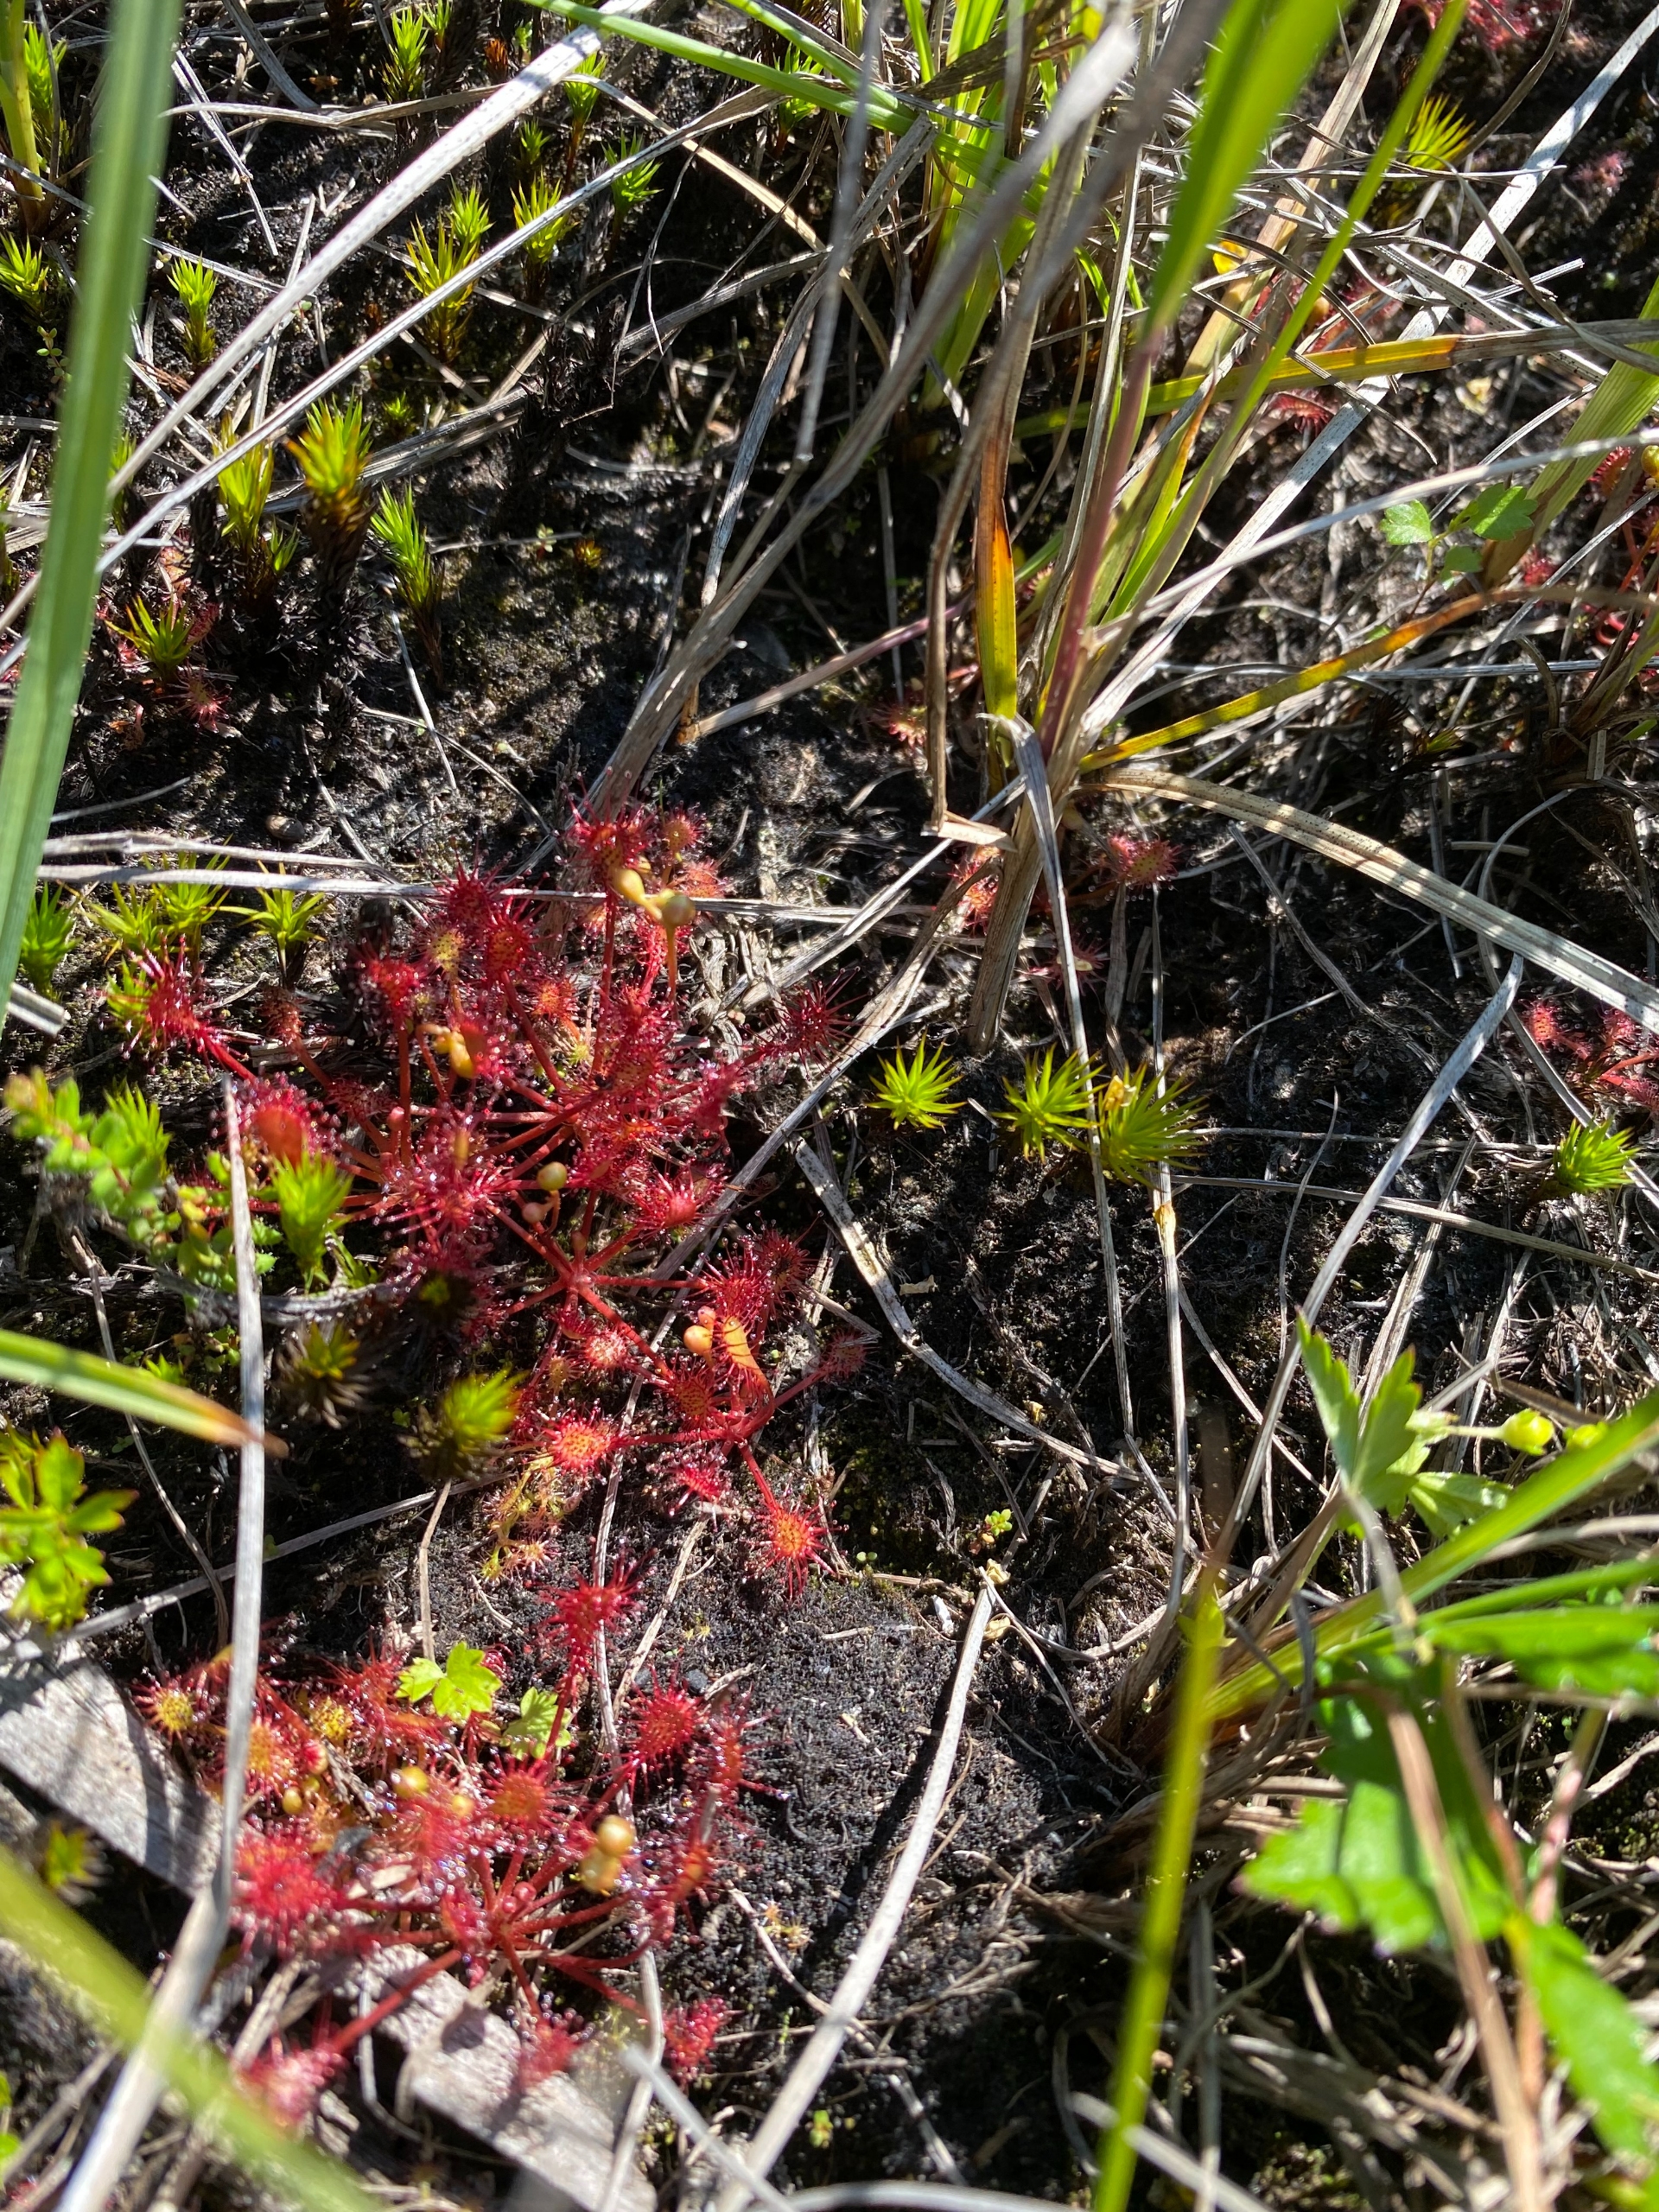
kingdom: Plantae
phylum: Tracheophyta
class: Magnoliopsida
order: Caryophyllales
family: Droseraceae
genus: Drosera
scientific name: Drosera rotundifolia
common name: Rundbladet soldug
